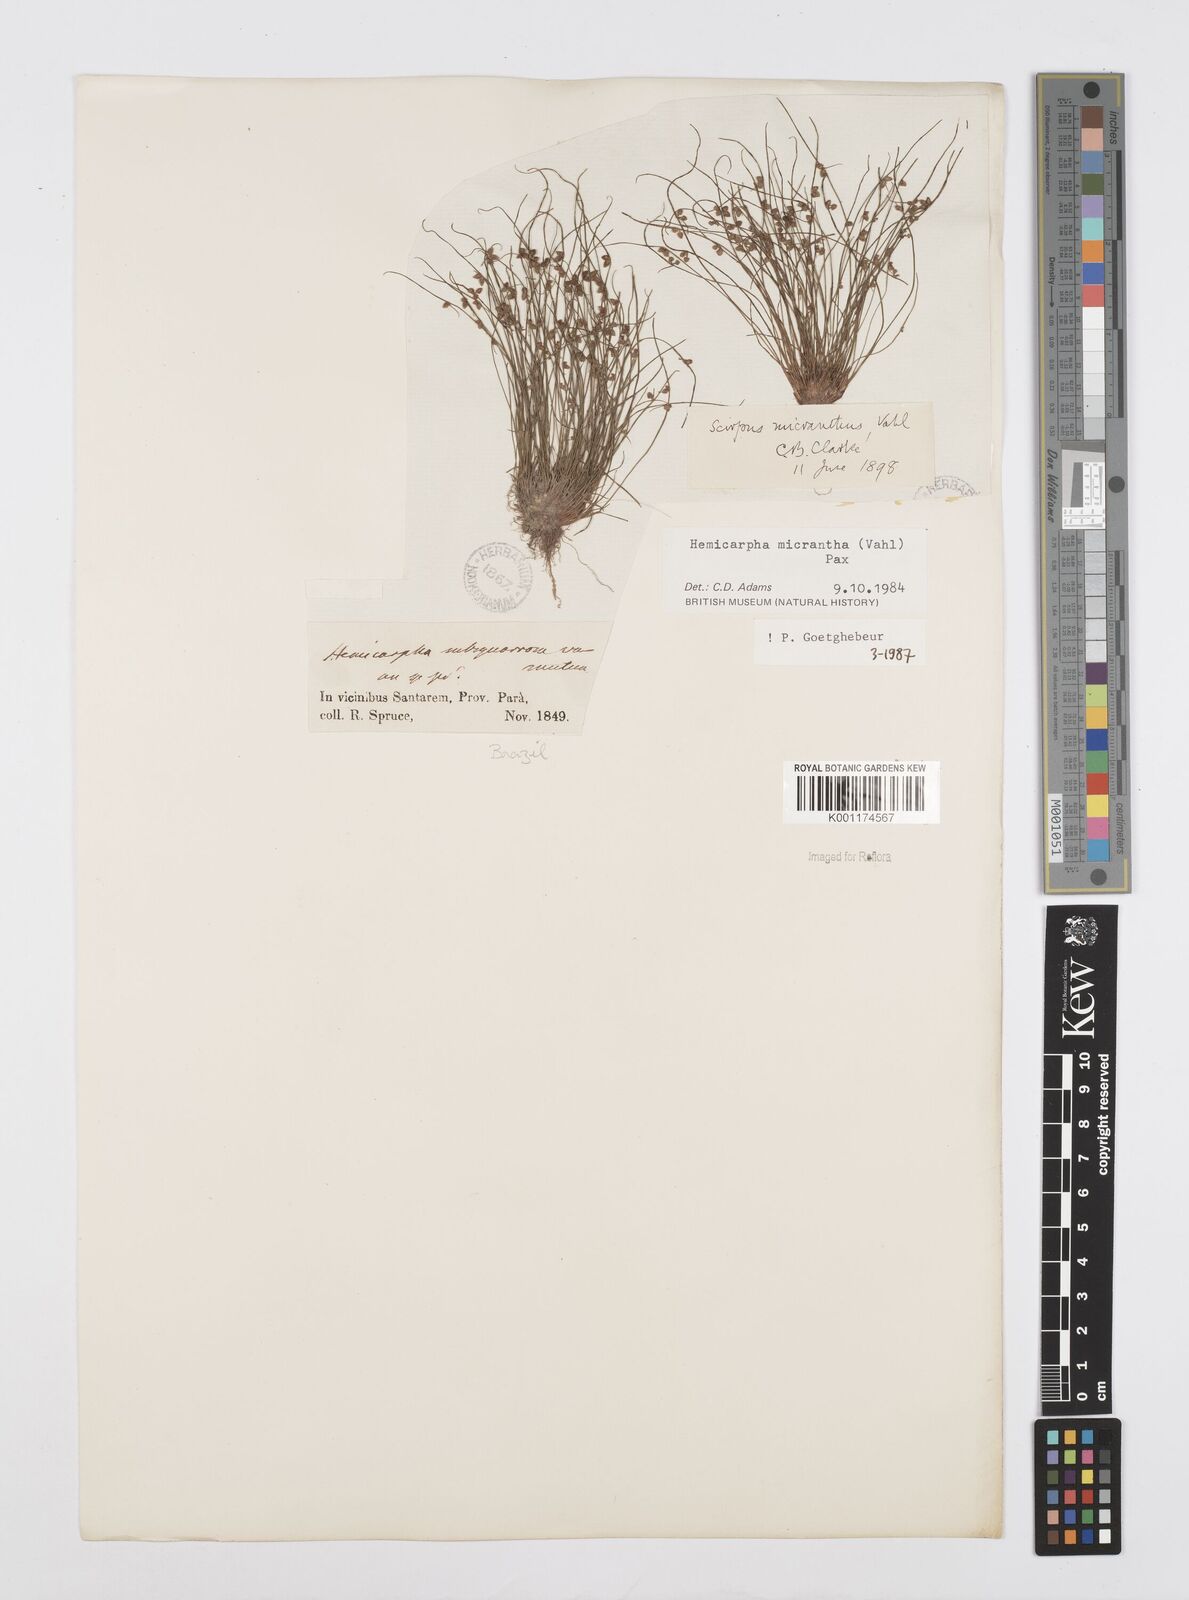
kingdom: Plantae
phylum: Tracheophyta
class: Liliopsida
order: Poales
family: Cyperaceae
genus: Cyperus
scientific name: Cyperus
